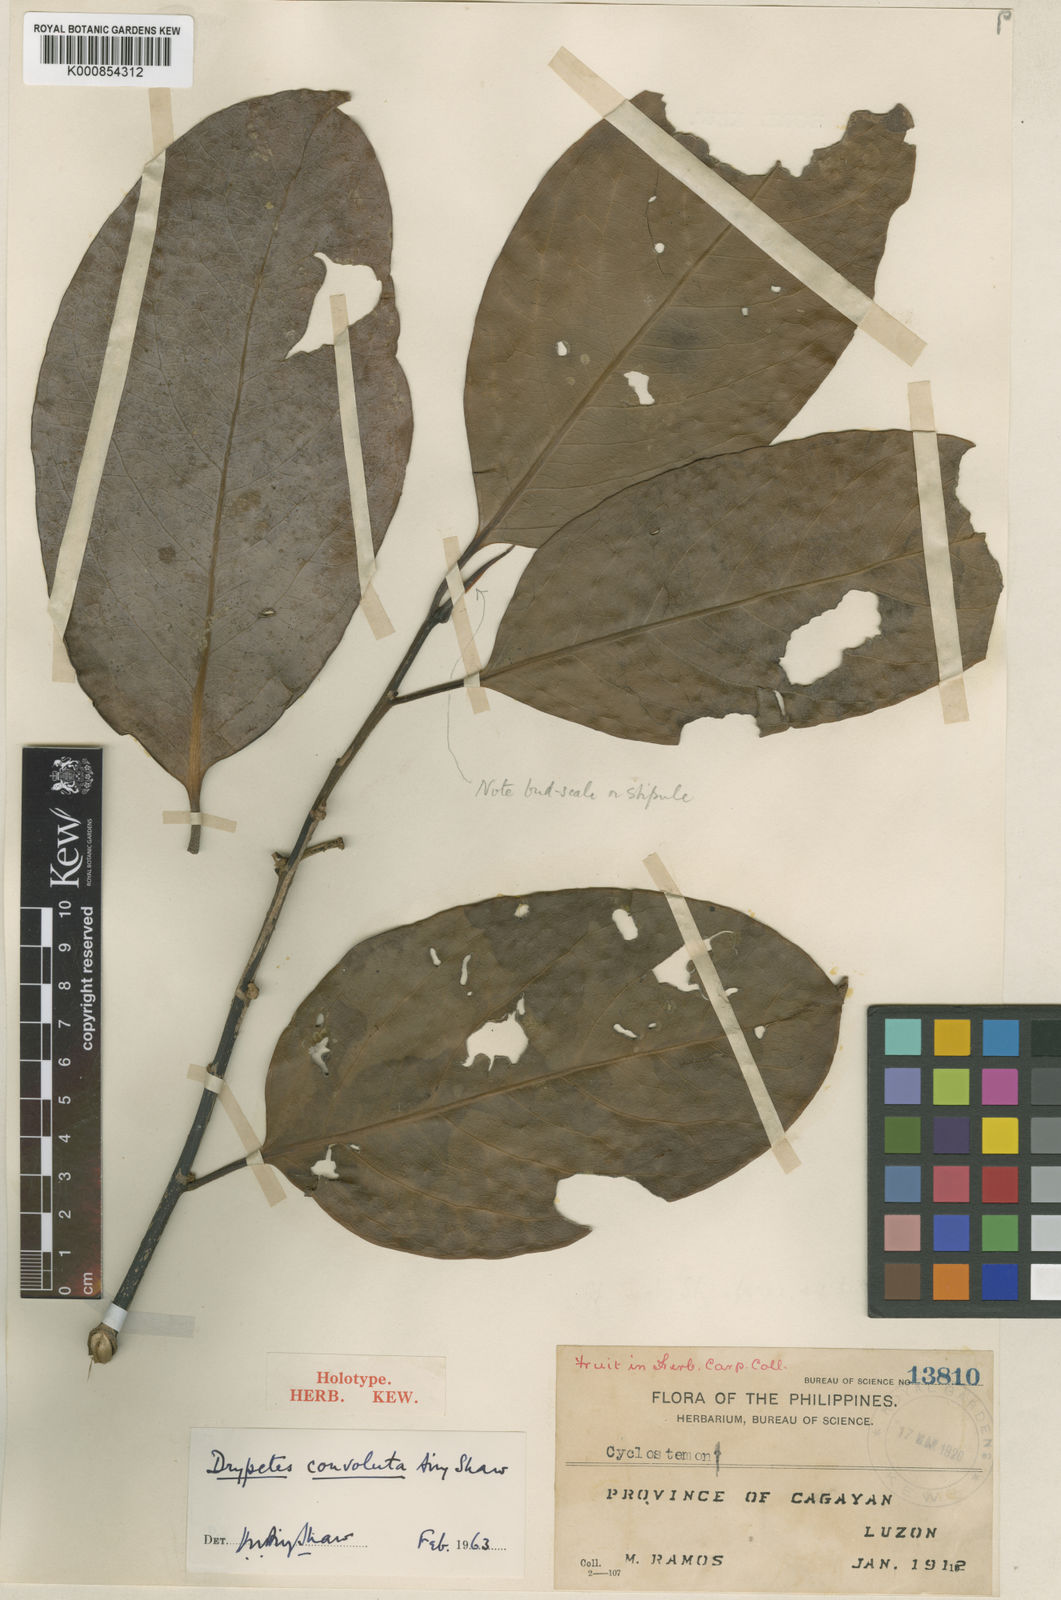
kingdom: Plantae
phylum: Tracheophyta
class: Magnoliopsida
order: Malpighiales
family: Putranjivaceae
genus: Drypetes
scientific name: Drypetes convoluta
